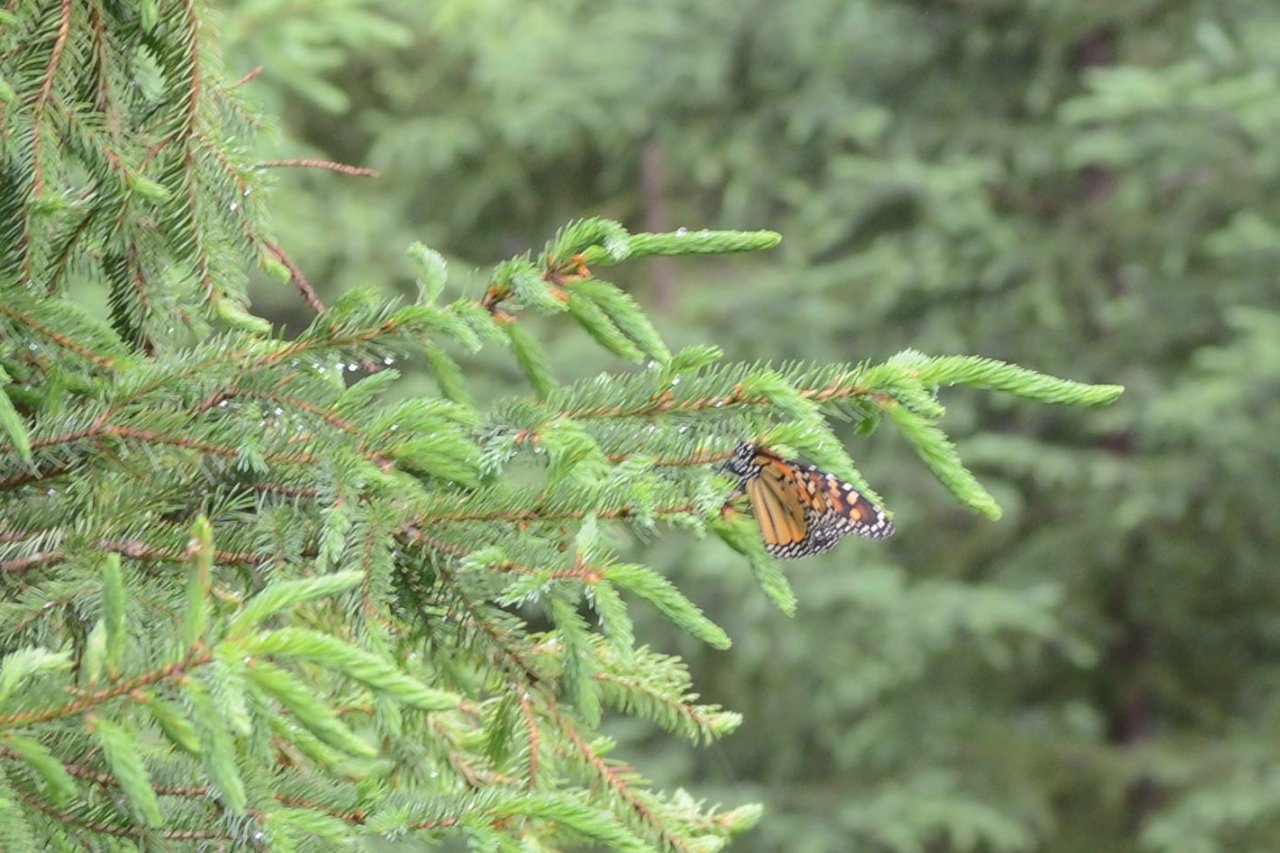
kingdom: Animalia
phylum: Arthropoda
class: Insecta
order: Lepidoptera
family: Nymphalidae
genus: Danaus
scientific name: Danaus plexippus
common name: Monarch
